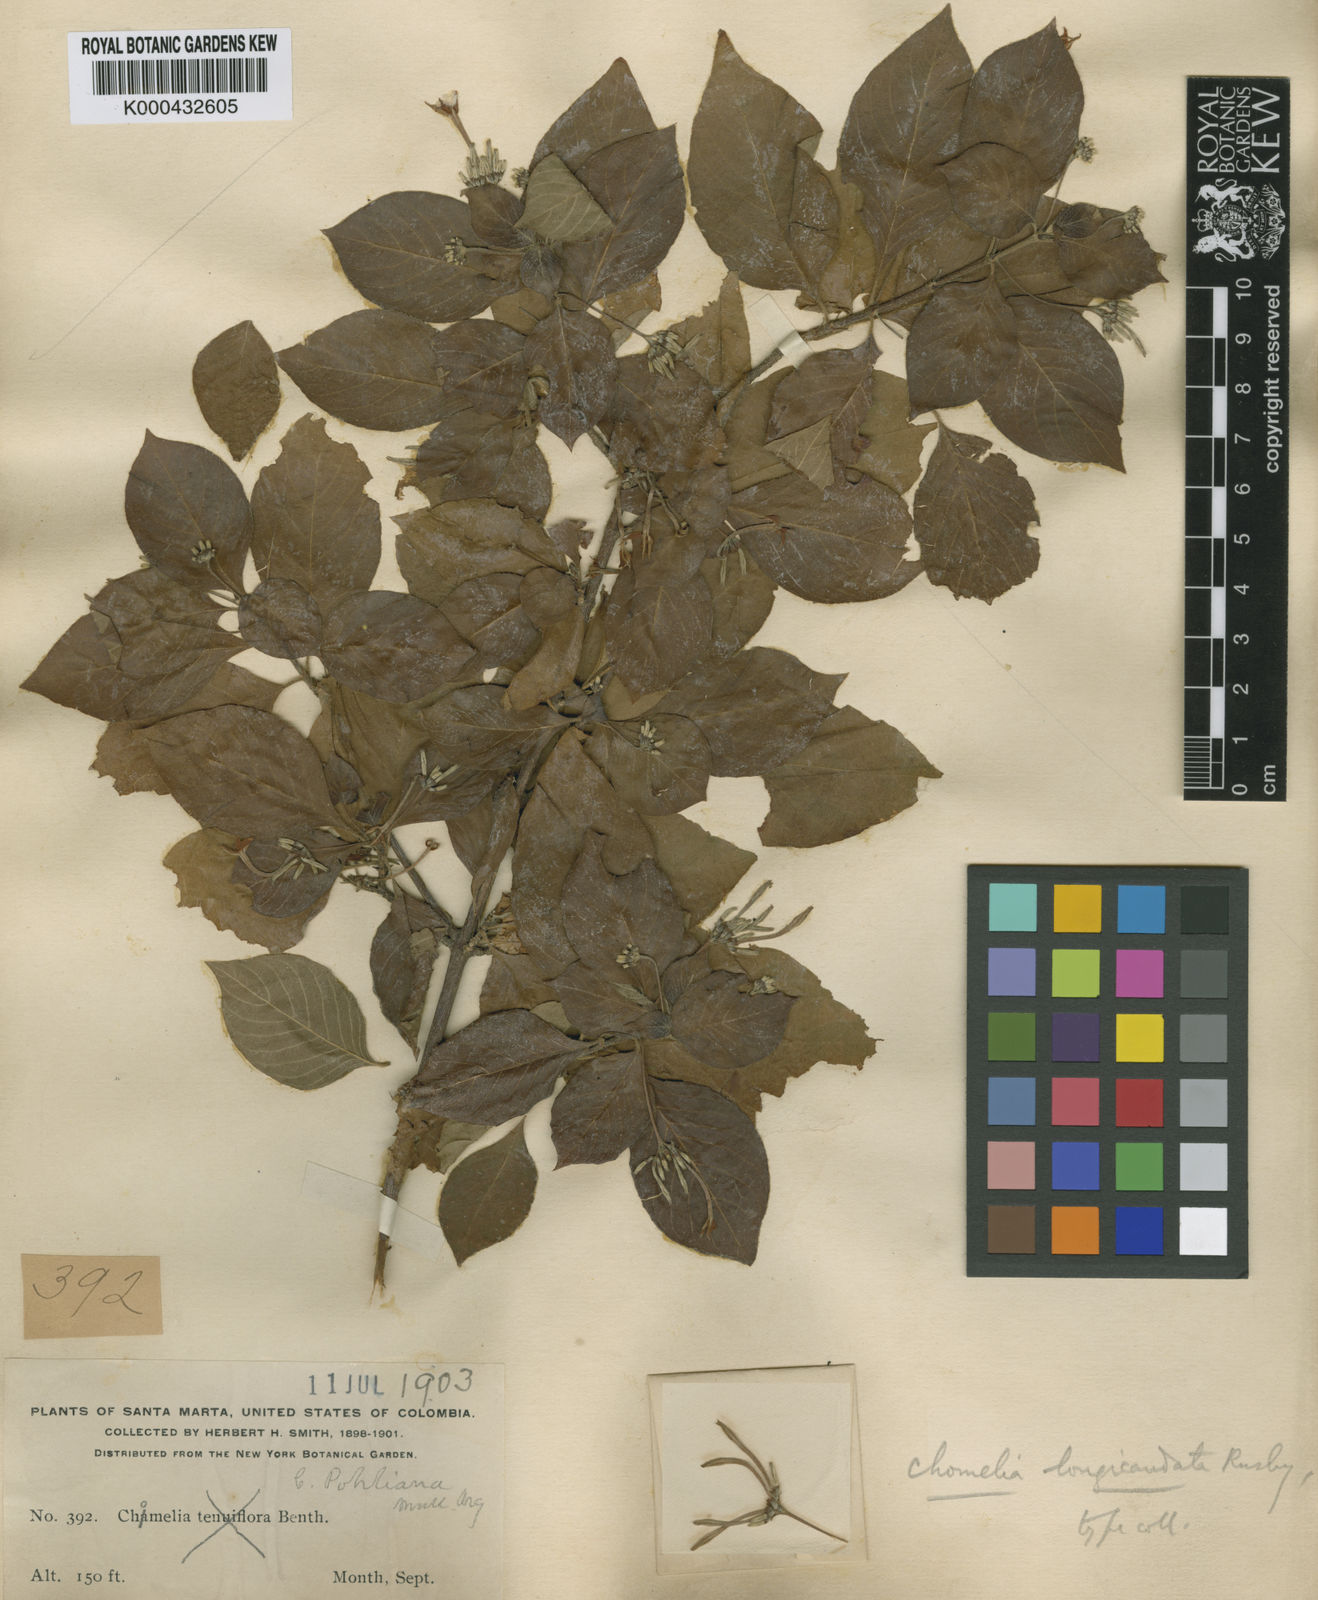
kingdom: Plantae
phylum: Tracheophyta
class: Magnoliopsida
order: Gentianales
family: Rubiaceae
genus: Chomelia
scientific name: Chomelia spinosa
